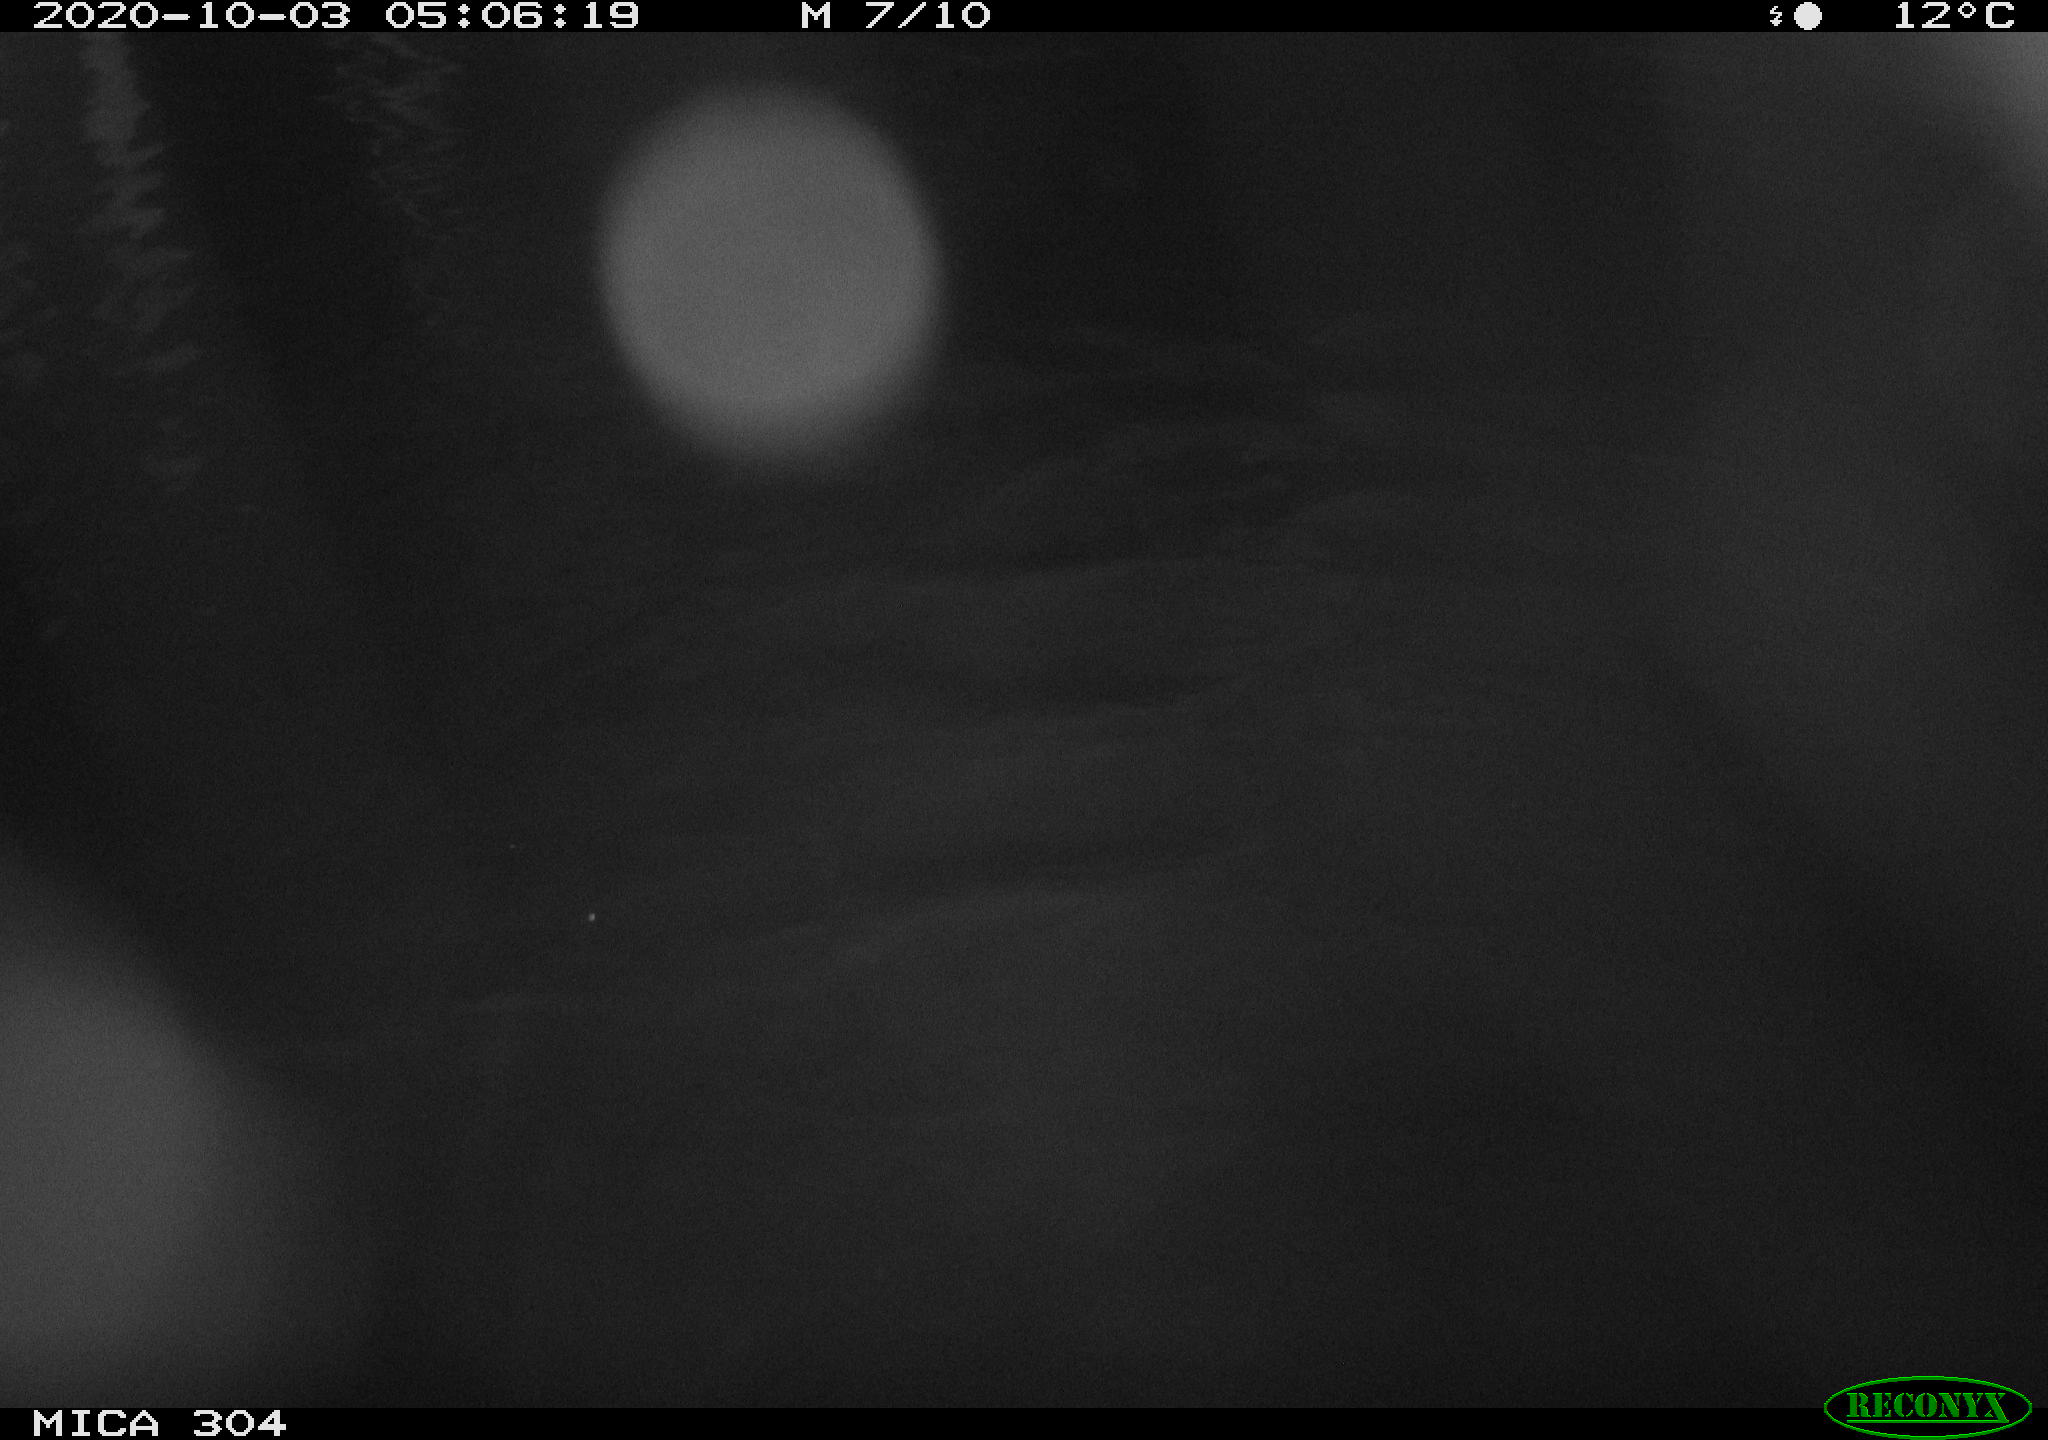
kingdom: Animalia
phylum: Chordata
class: Mammalia
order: Rodentia
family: Cricetidae
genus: Ondatra
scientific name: Ondatra zibethicus
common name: Muskrat
